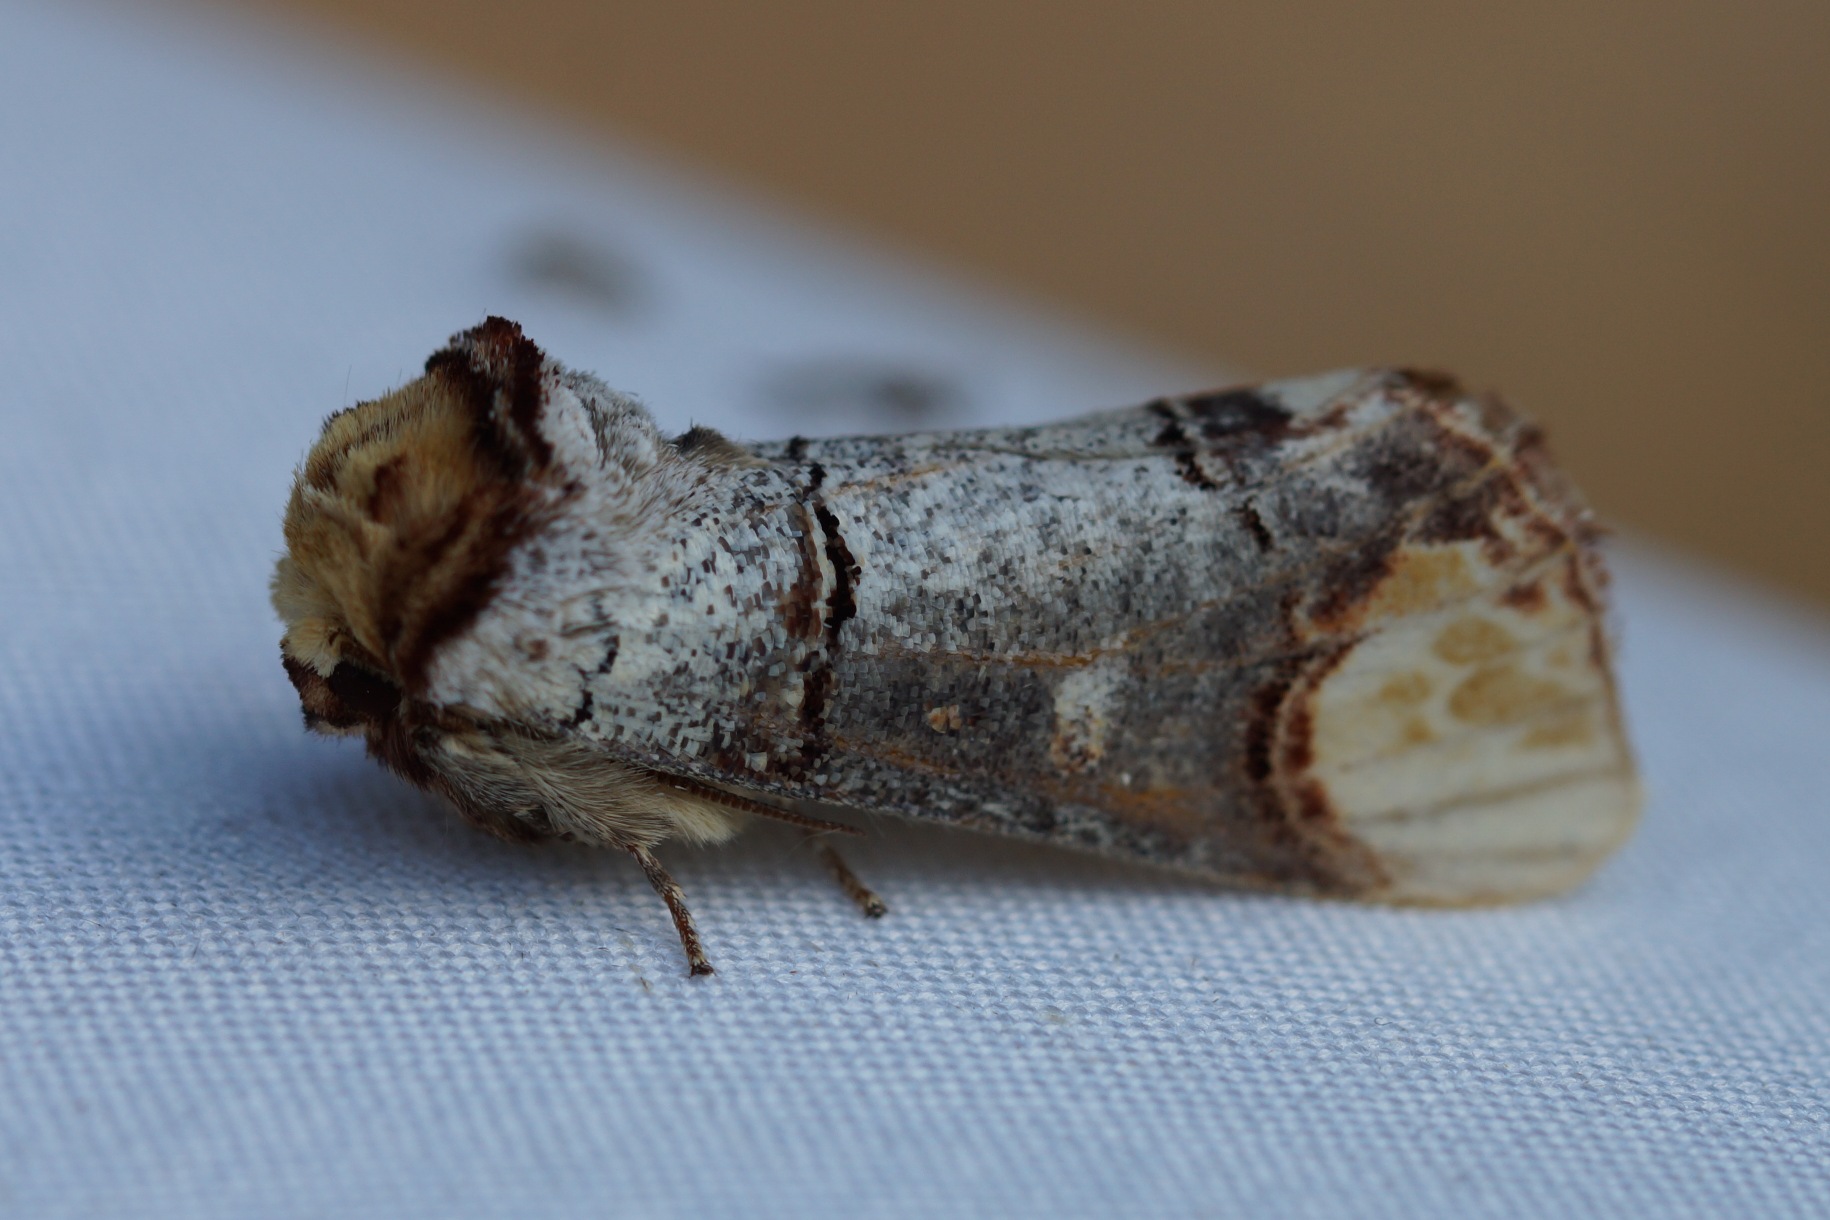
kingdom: Animalia
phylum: Arthropoda
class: Insecta
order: Lepidoptera
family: Notodontidae
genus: Phalera
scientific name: Phalera bucephala
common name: Måneplet
